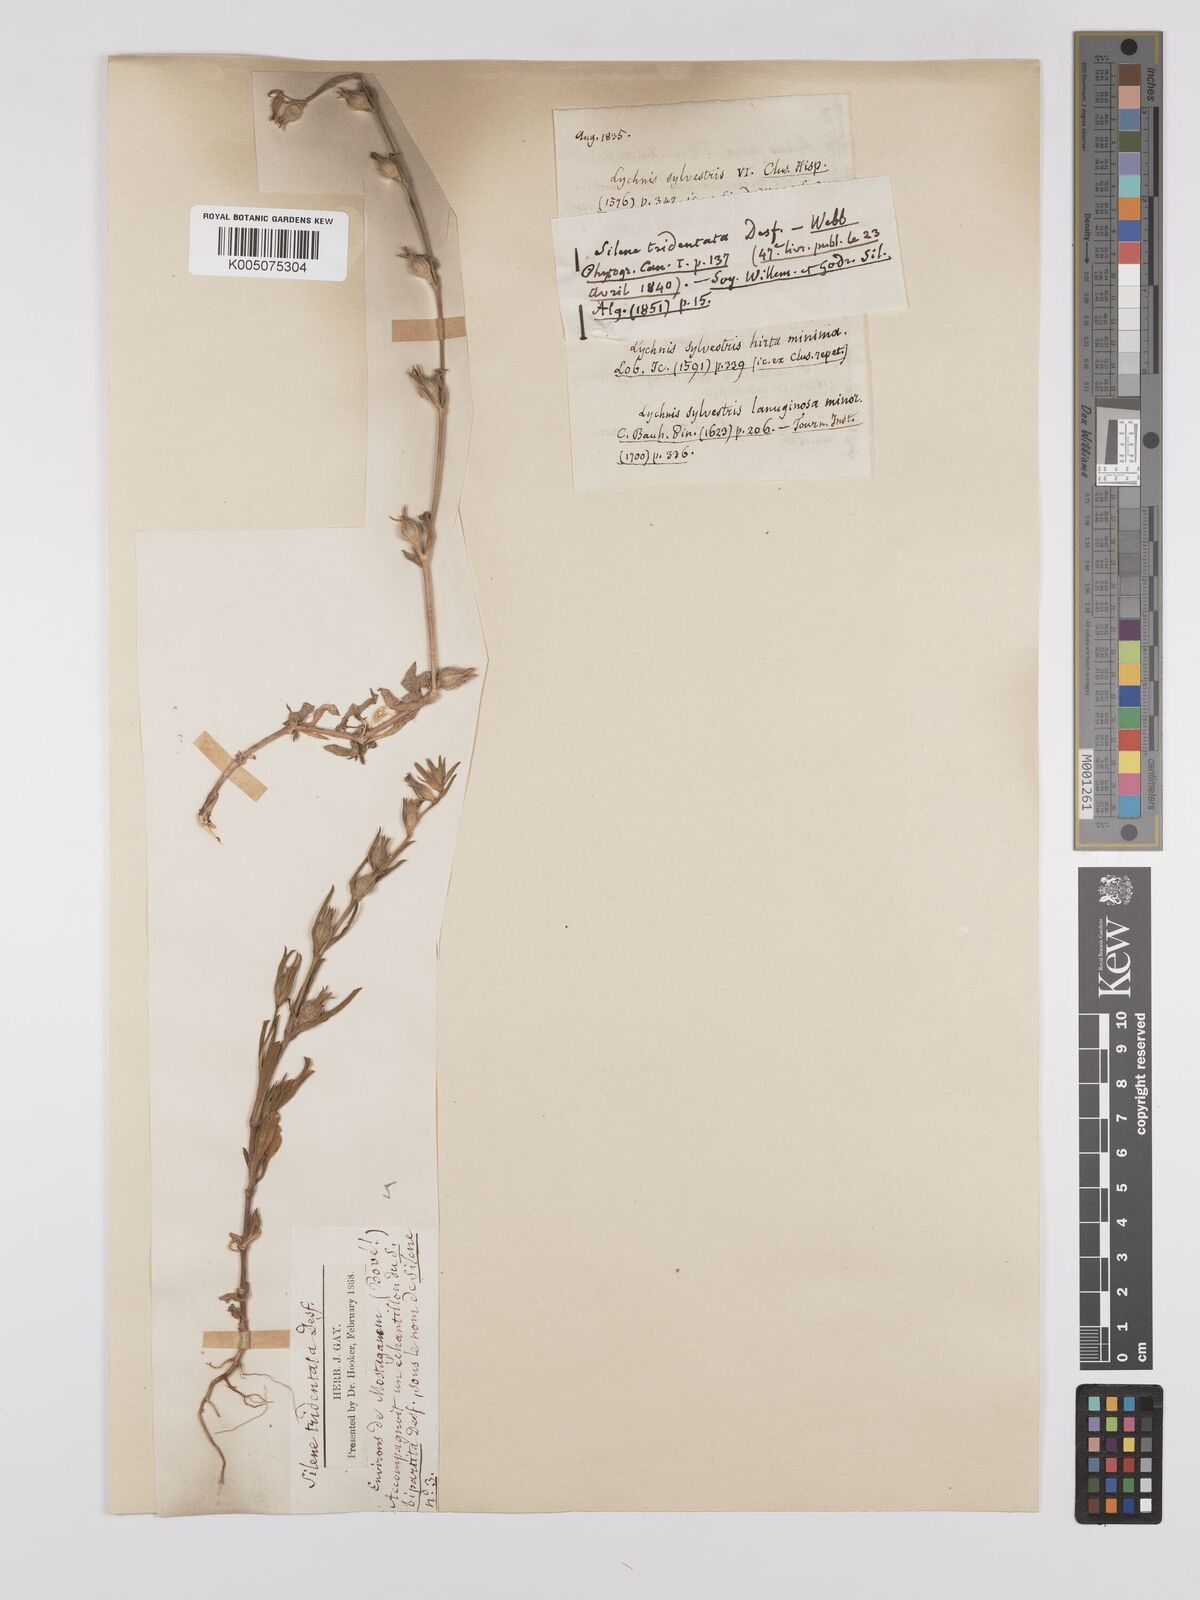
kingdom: Plantae
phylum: Tracheophyta
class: Magnoliopsida
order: Caryophyllales
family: Caryophyllaceae
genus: Silene
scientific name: Silene tridentata
